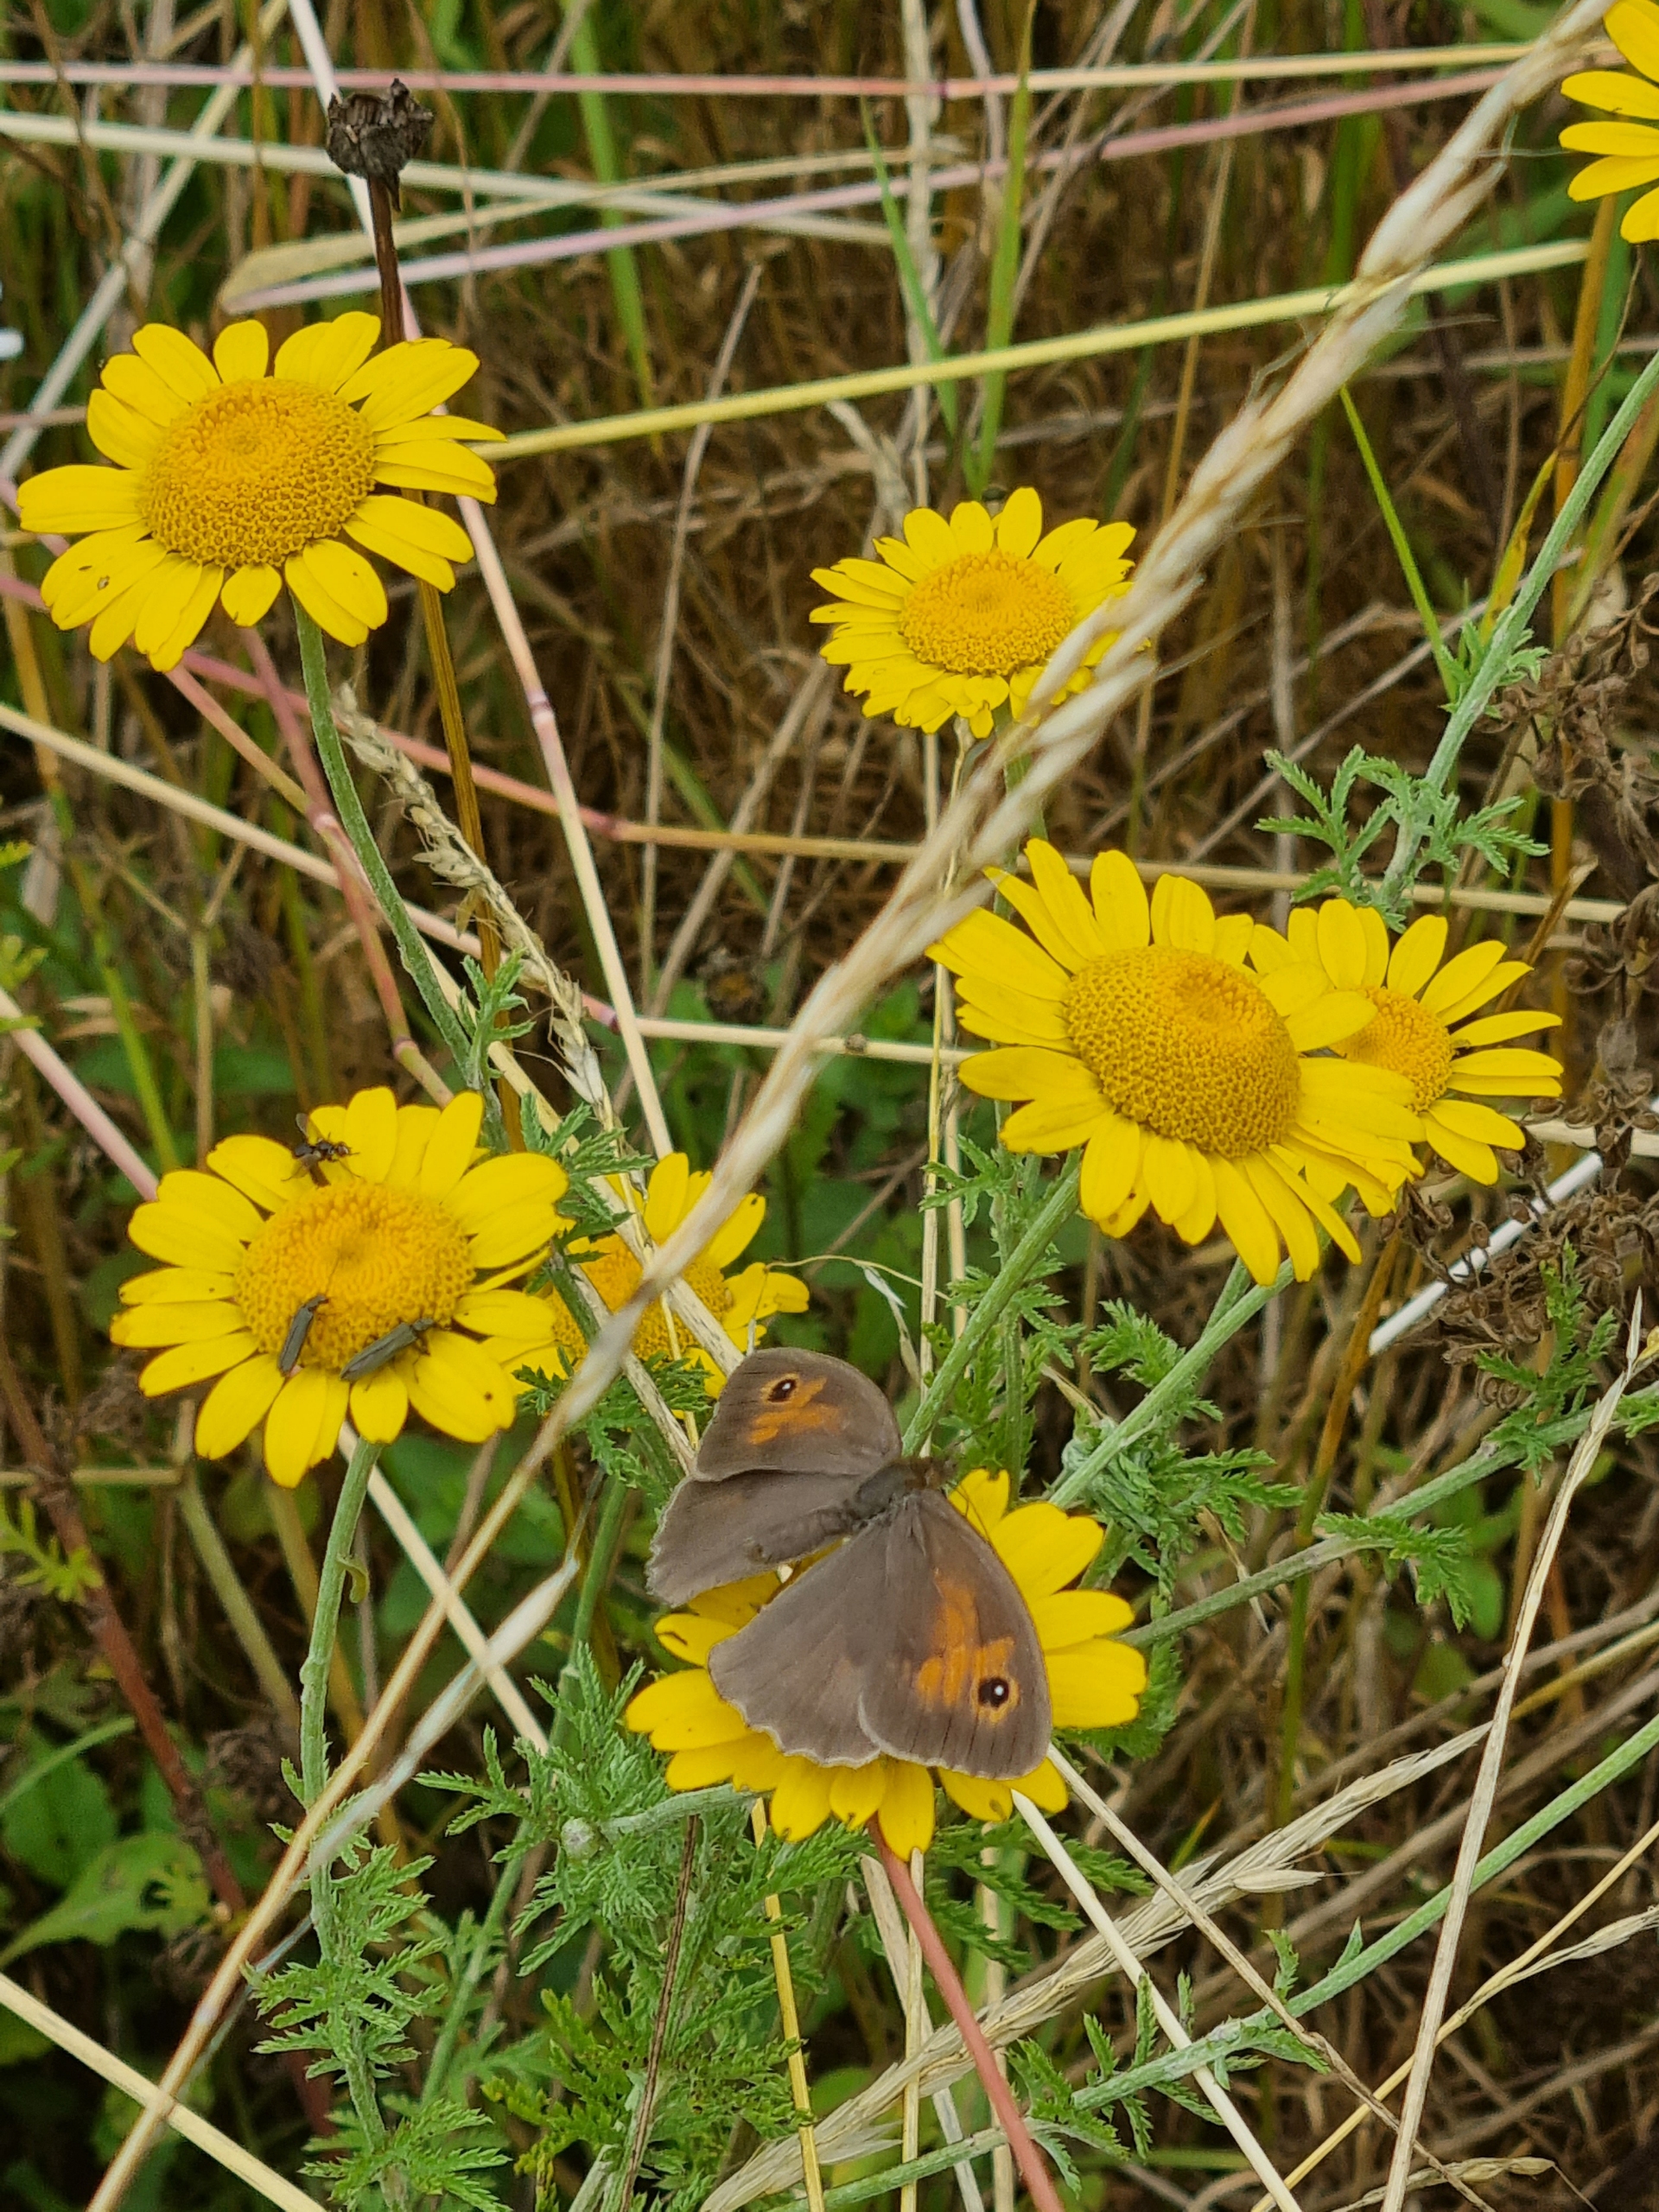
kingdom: Plantae
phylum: Tracheophyta
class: Magnoliopsida
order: Asterales
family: Asteraceae
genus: Cota
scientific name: Cota tinctoria
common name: Farve-gåseurt
